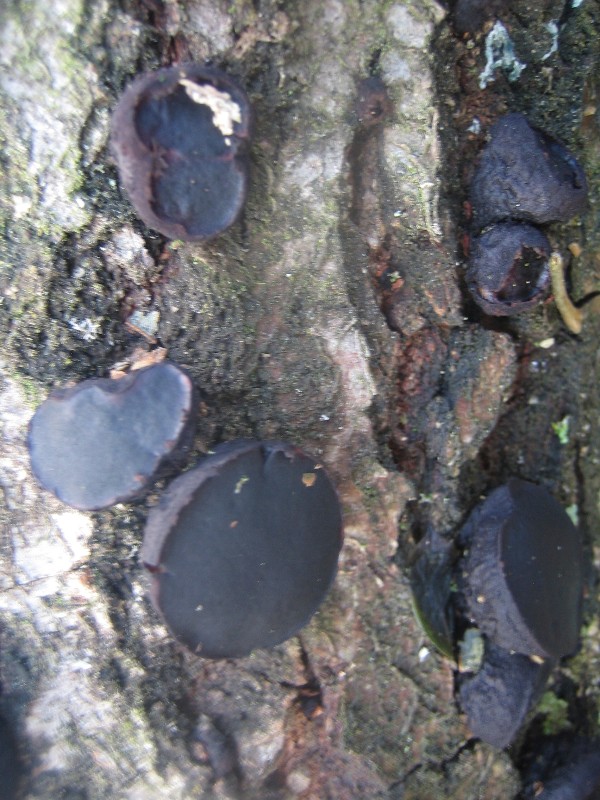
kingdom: Fungi
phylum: Ascomycota
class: Leotiomycetes
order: Phacidiales
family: Phacidiaceae
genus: Bulgaria
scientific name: Bulgaria inquinans
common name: afsmittende topsvamp
